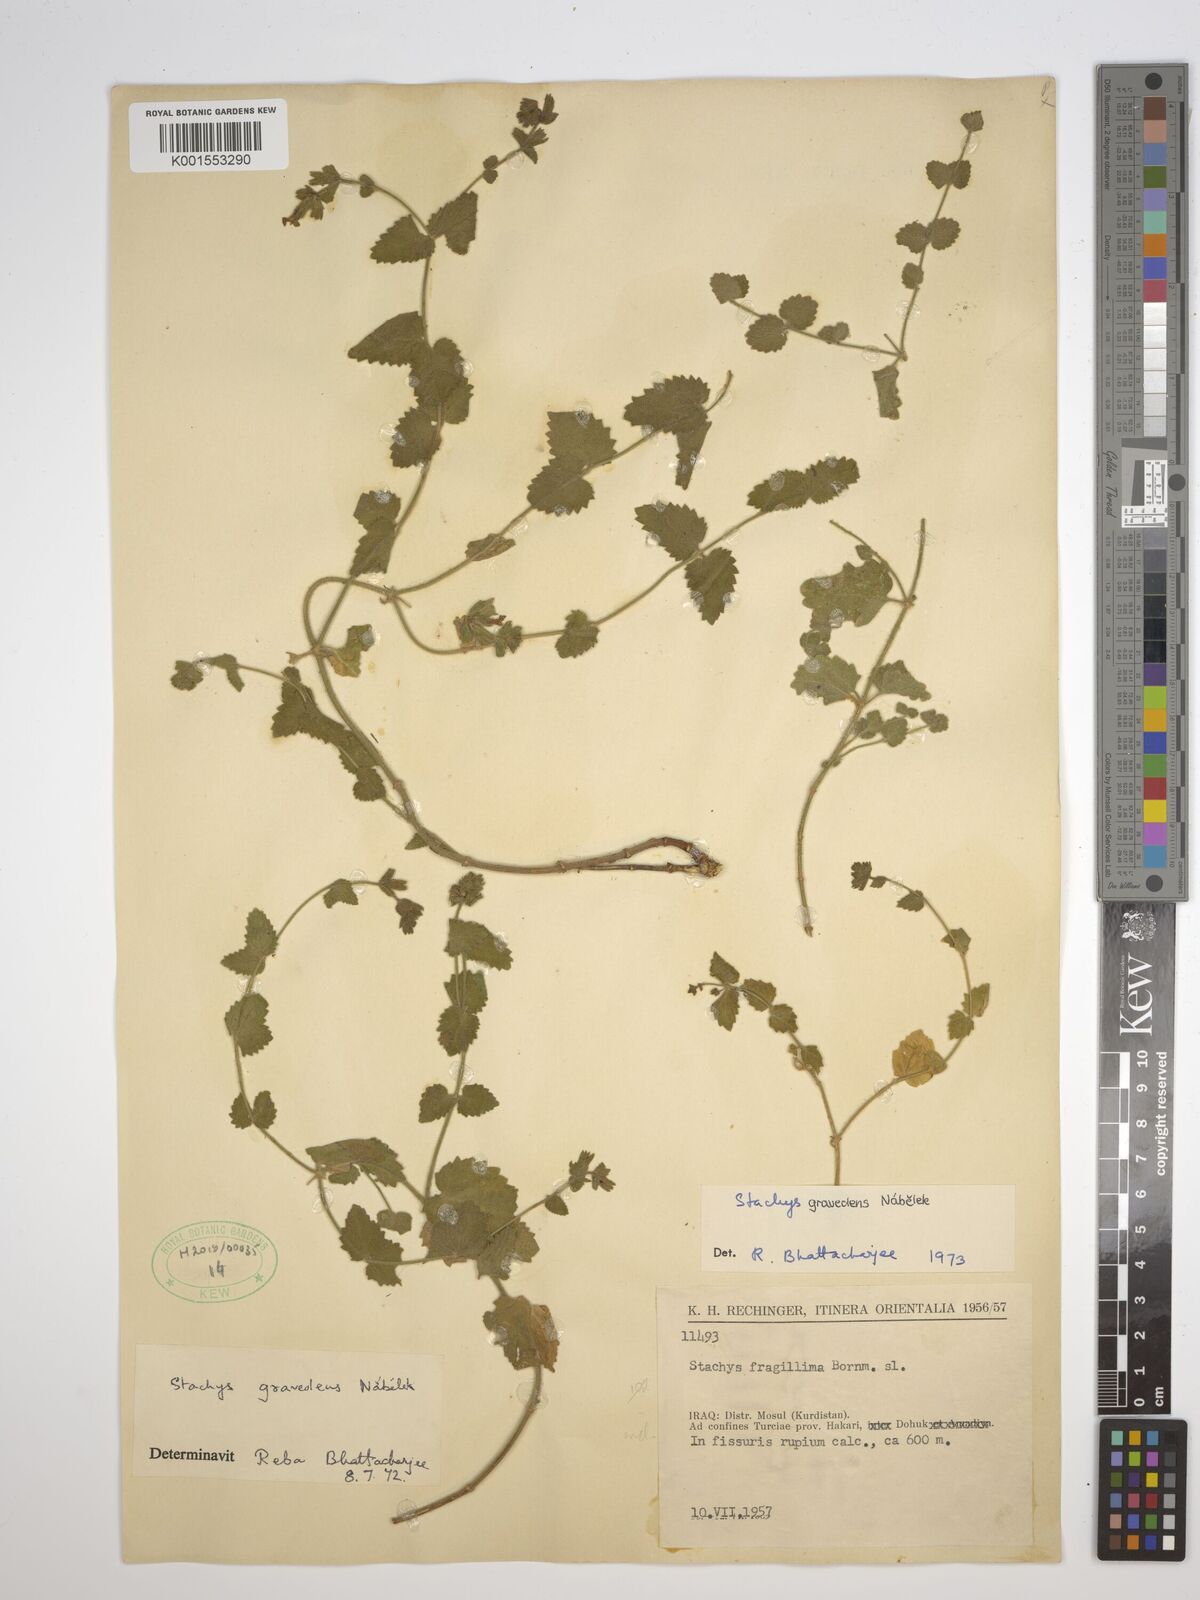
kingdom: Plantae
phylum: Tracheophyta
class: Magnoliopsida
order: Lamiales
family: Lamiaceae
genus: Stachys
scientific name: Stachys graveolens
